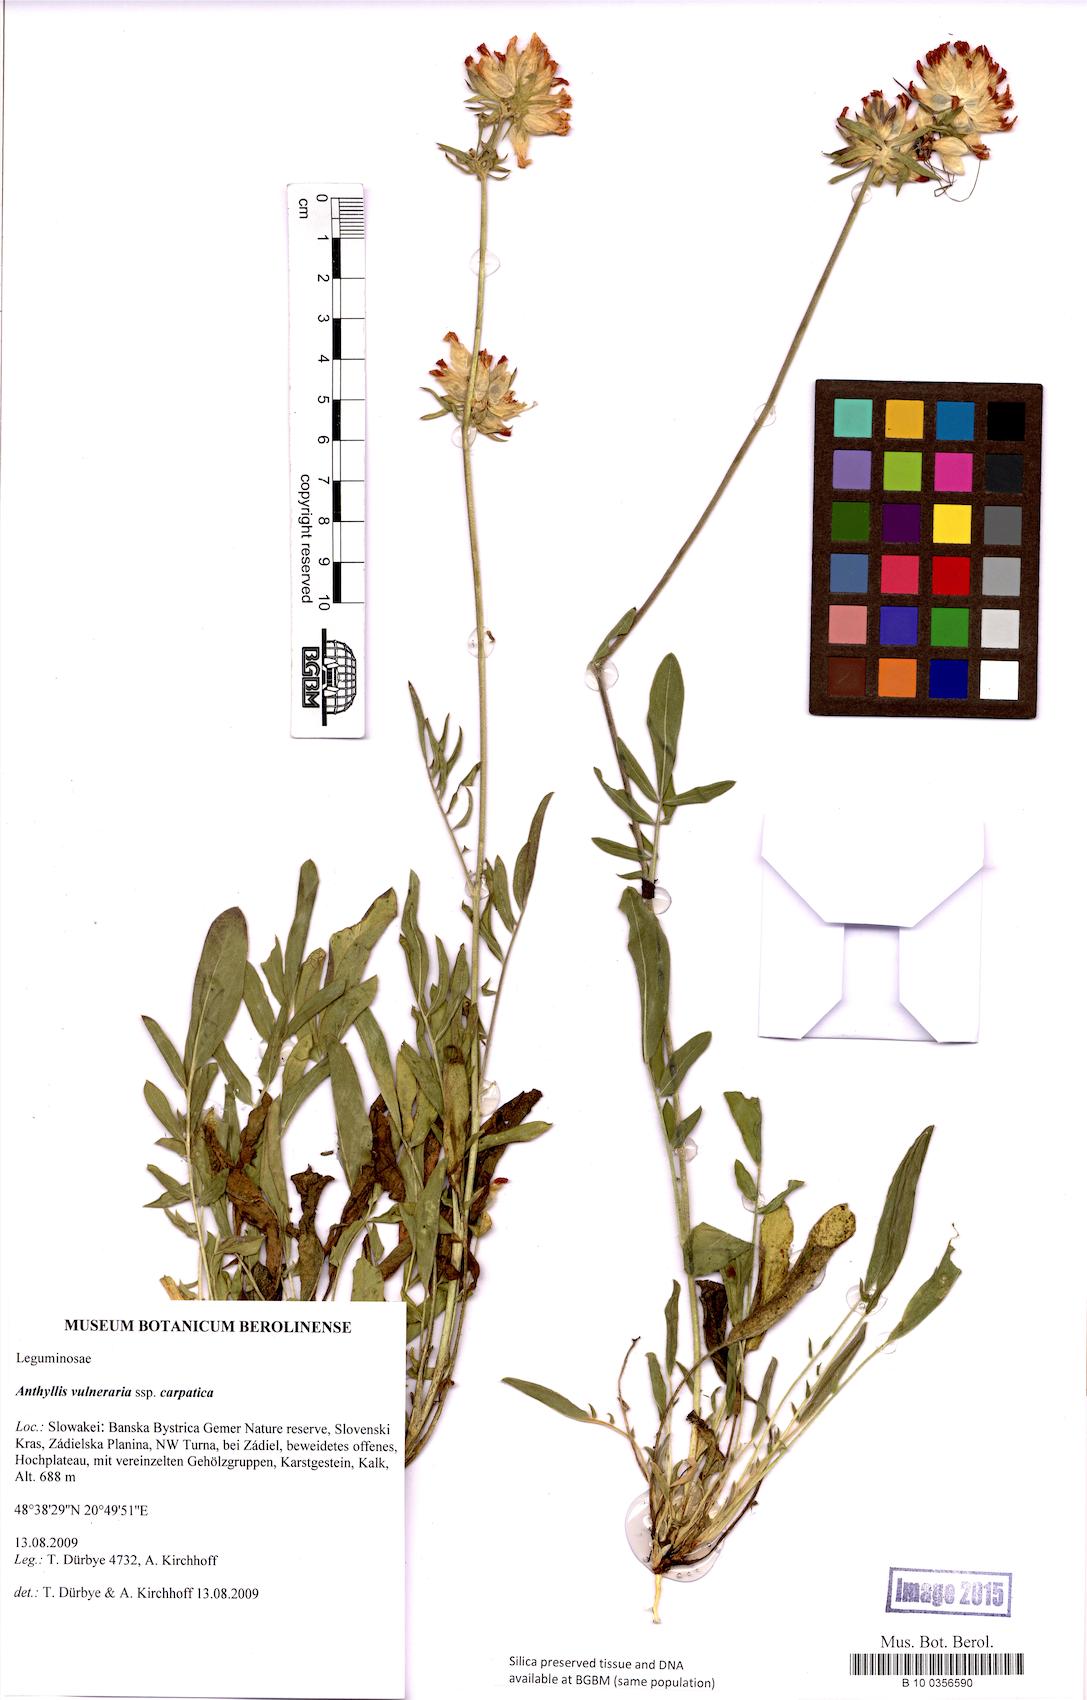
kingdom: Plantae
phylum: Tracheophyta
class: Magnoliopsida
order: Fabales
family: Fabaceae
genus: Anthyllis
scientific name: Anthyllis vulneraria
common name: Kidney vetch
